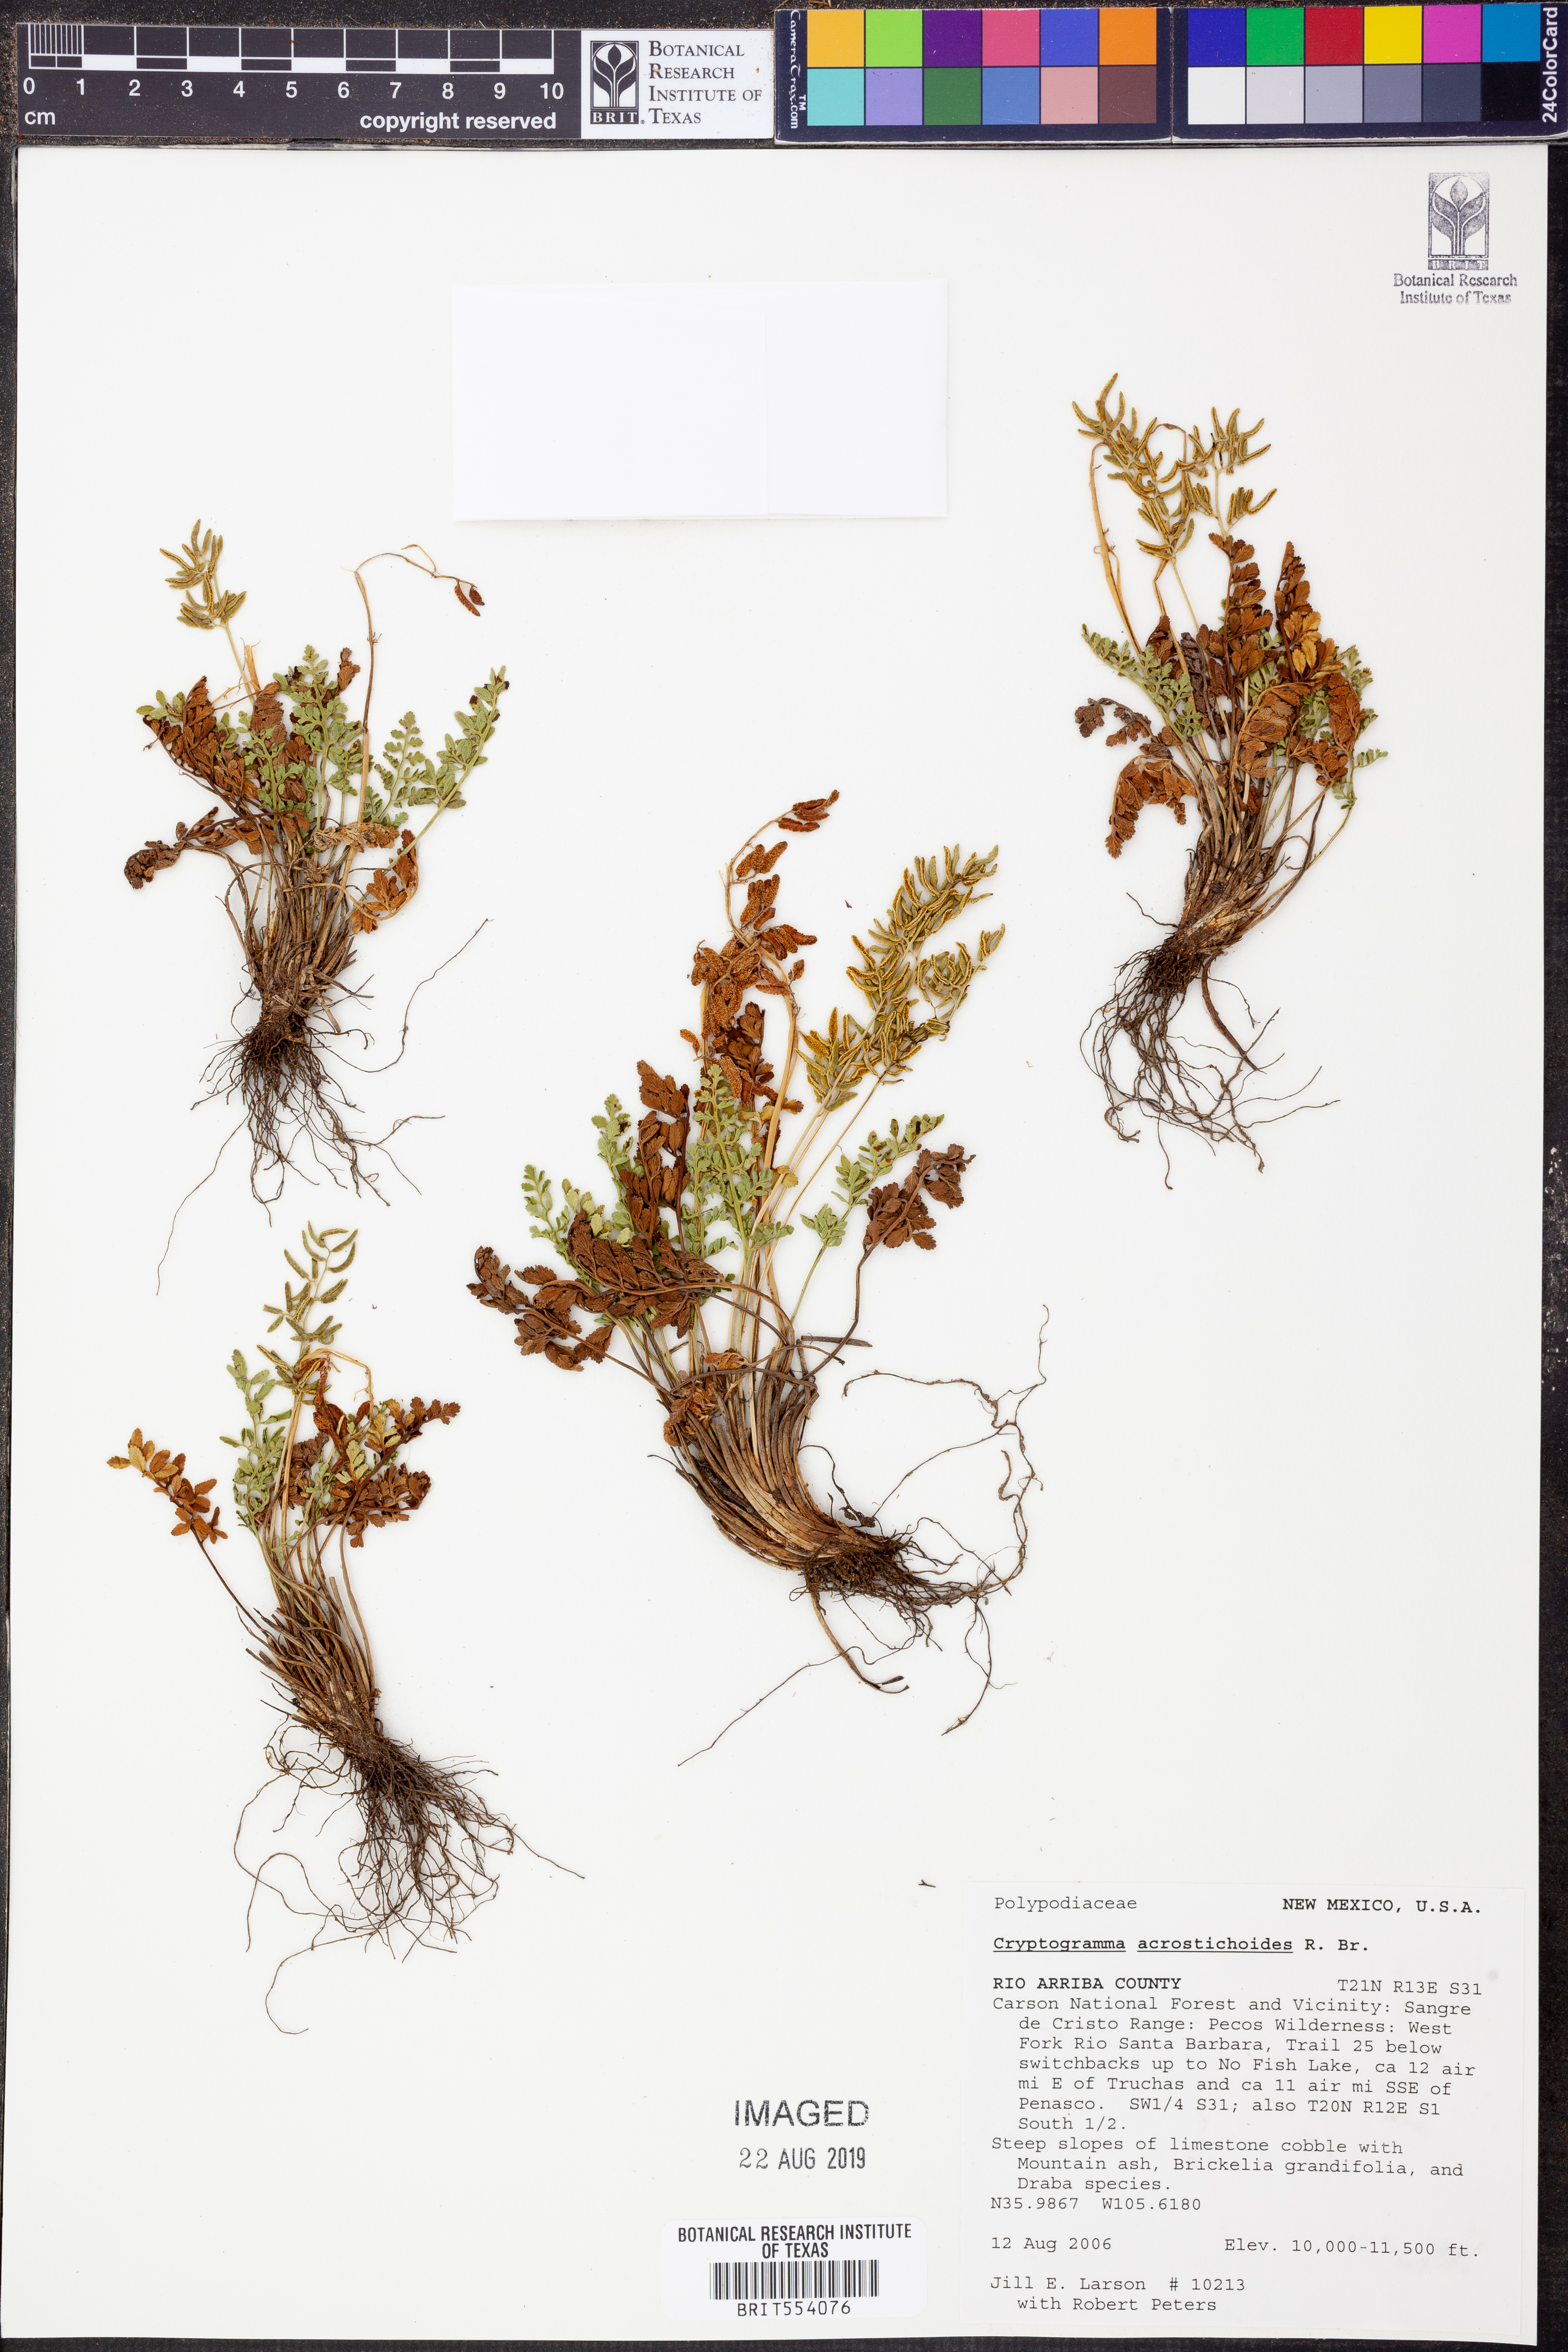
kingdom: Plantae
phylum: Tracheophyta
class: Polypodiopsida
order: Polypodiales
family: Pteridaceae
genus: Cryptogramma
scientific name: Cryptogramma acrostichoides
